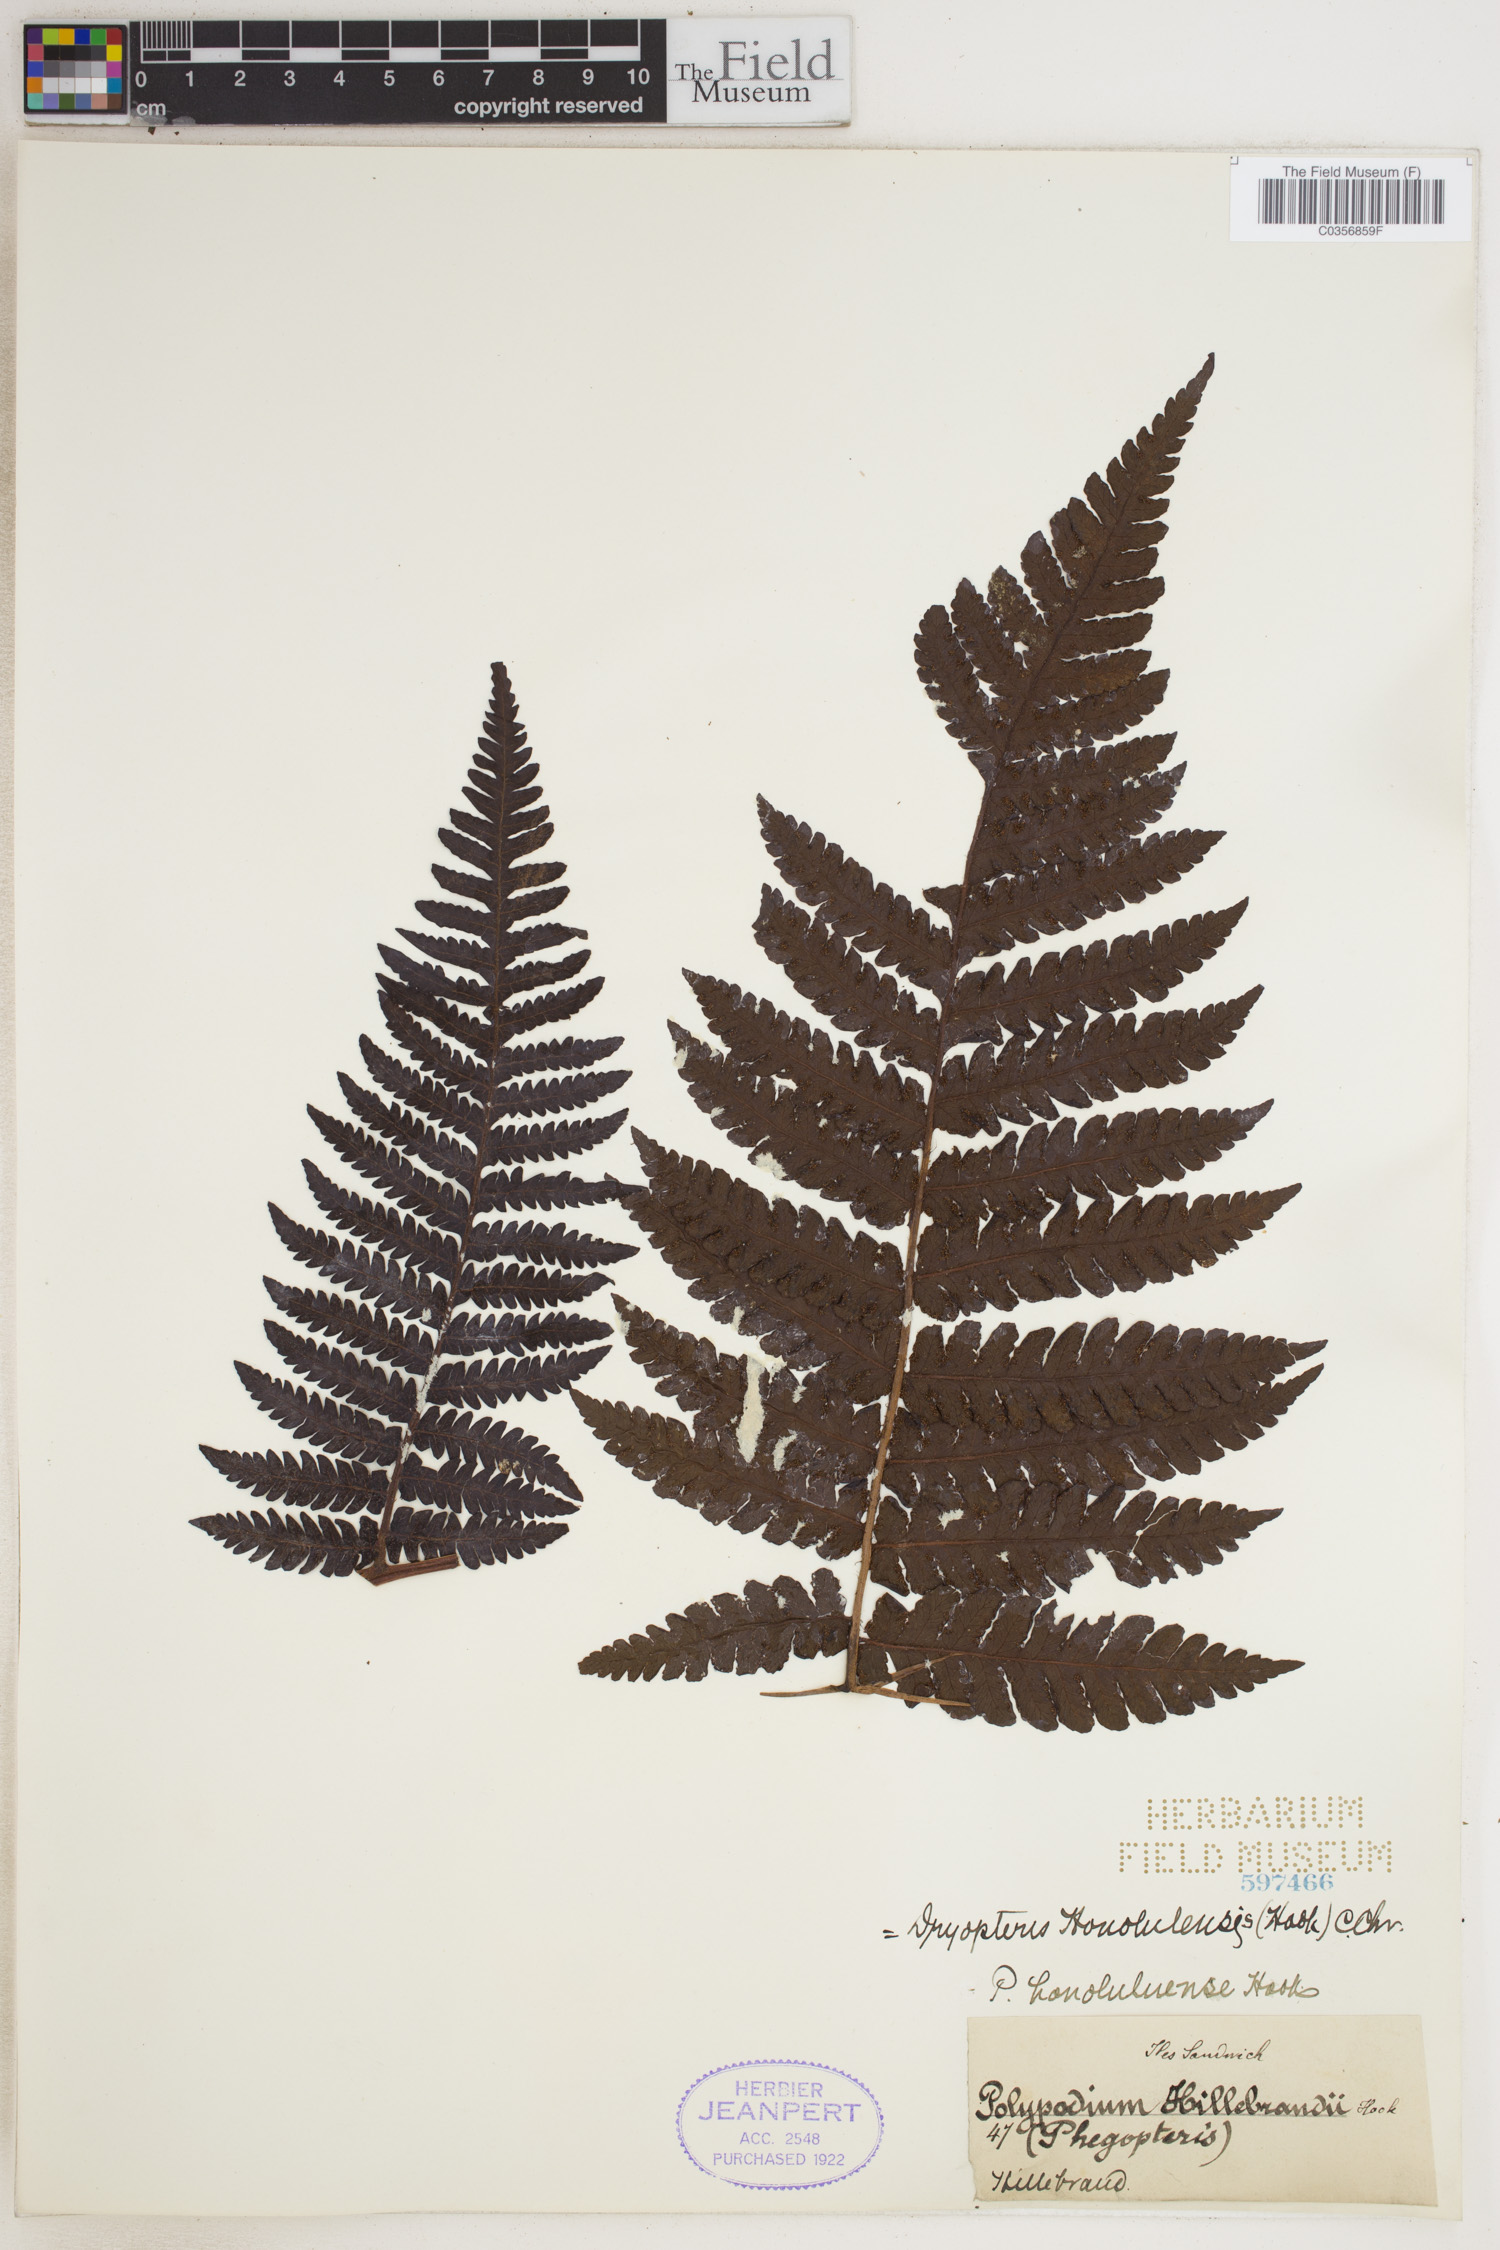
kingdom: Plantae
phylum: Tracheophyta
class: Polypodiopsida
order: Polypodiales
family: Dryopteridaceae
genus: Ctenitis
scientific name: Ctenitis latifrons
